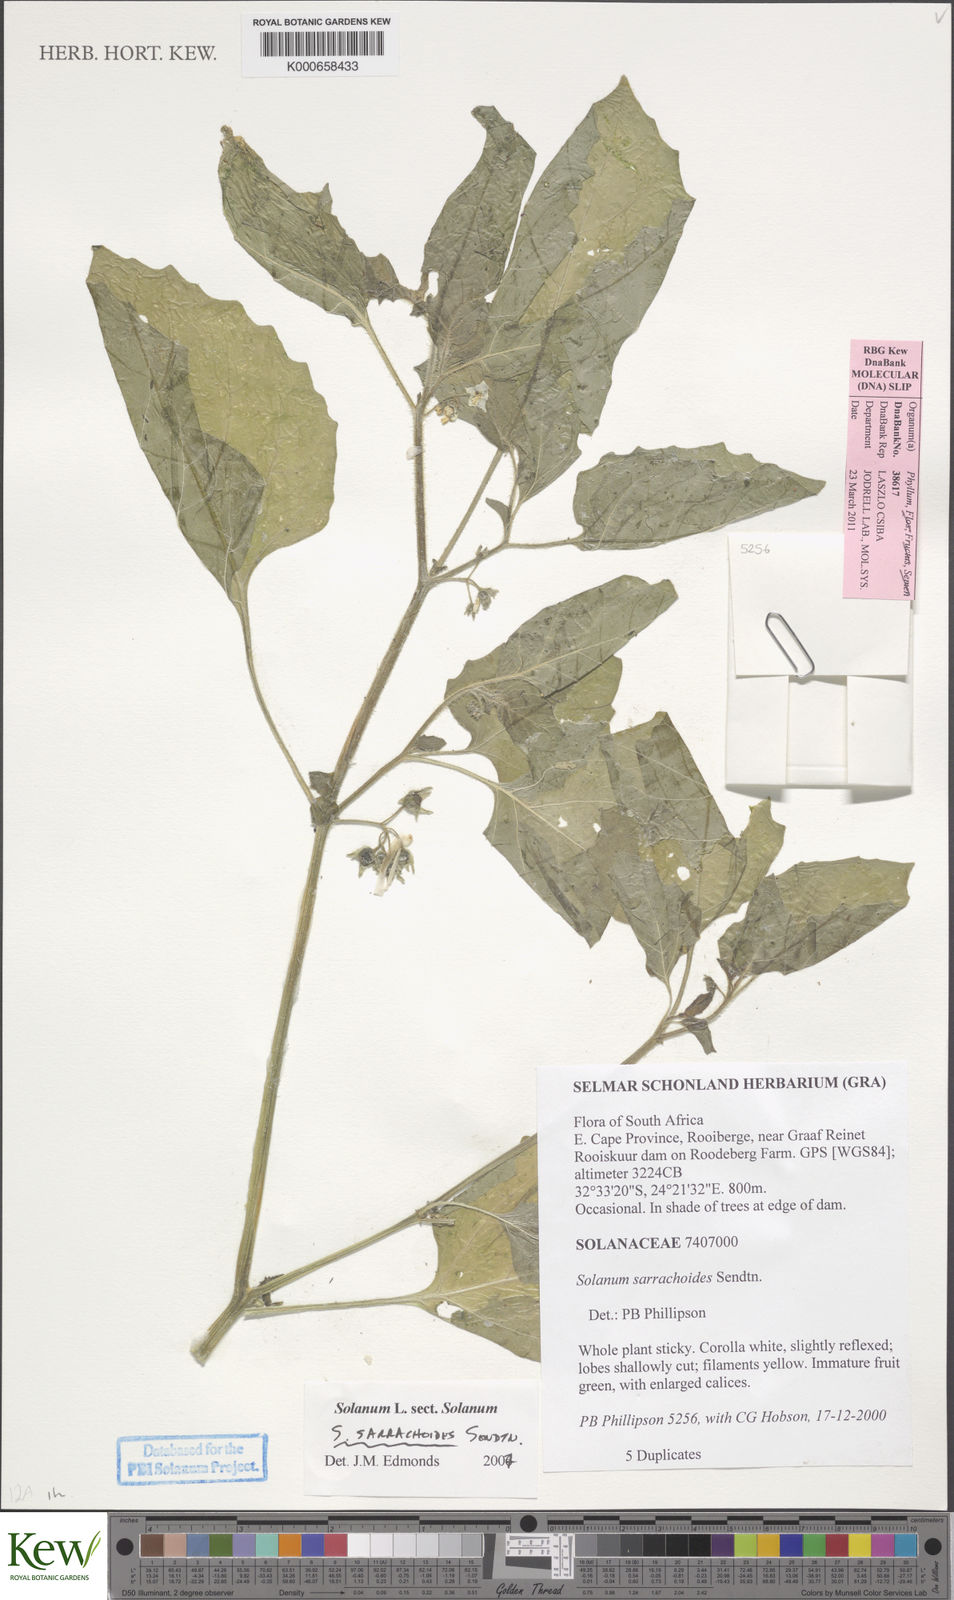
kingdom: Plantae
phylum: Tracheophyta
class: Magnoliopsida
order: Solanales
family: Solanaceae
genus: Solanum
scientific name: Solanum nitidibaccatum
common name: Hairy nightshade
